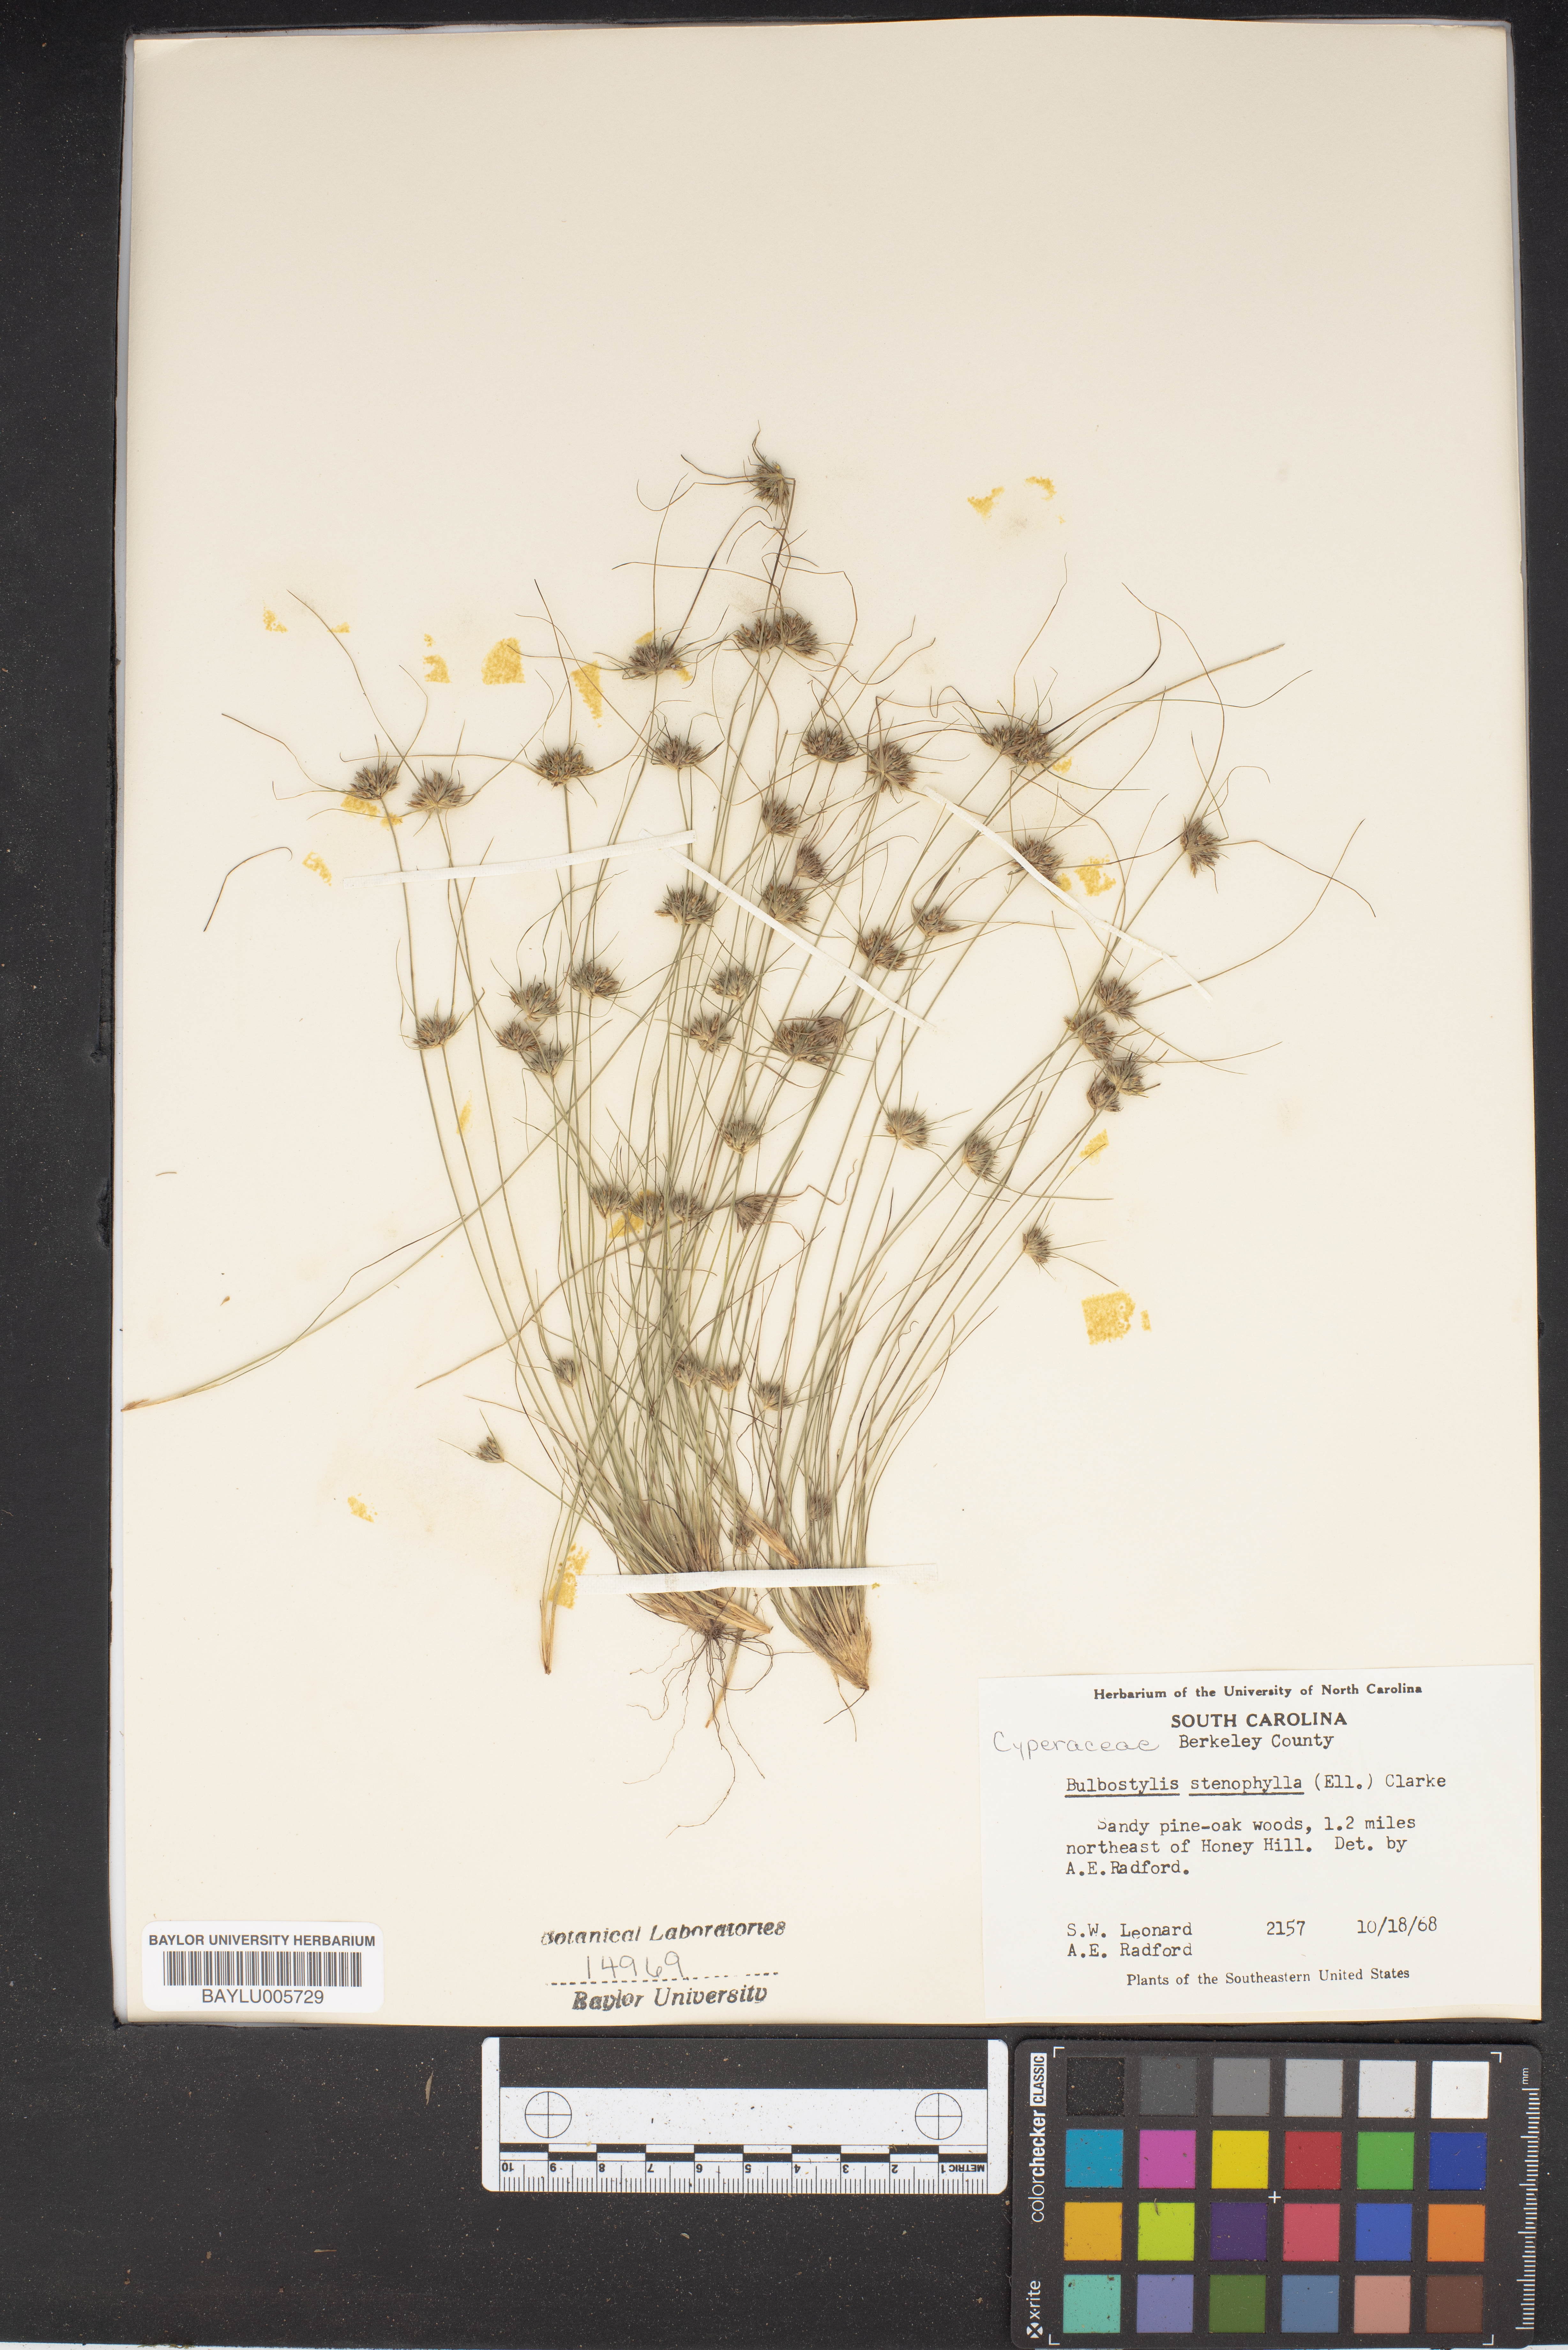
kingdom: Plantae
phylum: Tracheophyta
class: Liliopsida
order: Poales
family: Cyperaceae
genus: Bulbostylis
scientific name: Bulbostylis stenophylla
